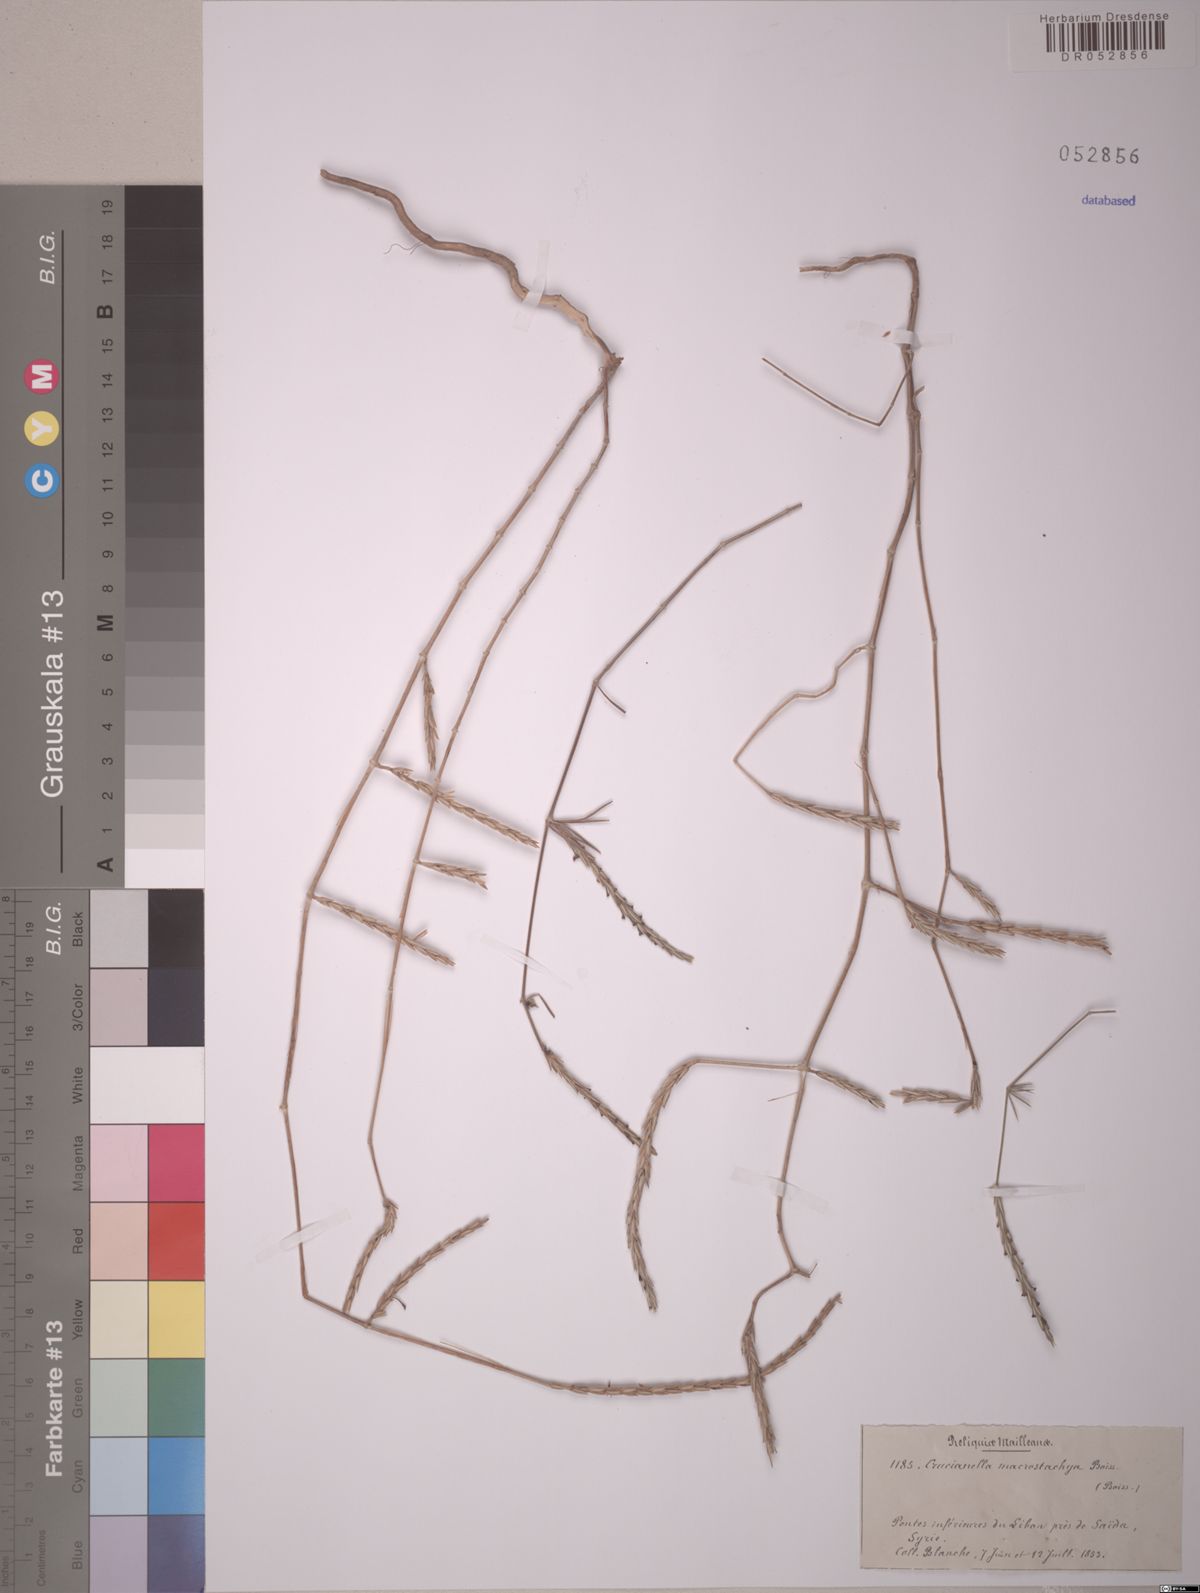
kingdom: Plantae
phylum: Tracheophyta
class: Magnoliopsida
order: Gentianales
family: Rubiaceae
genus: Crucianella
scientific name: Crucianella macrostachya
